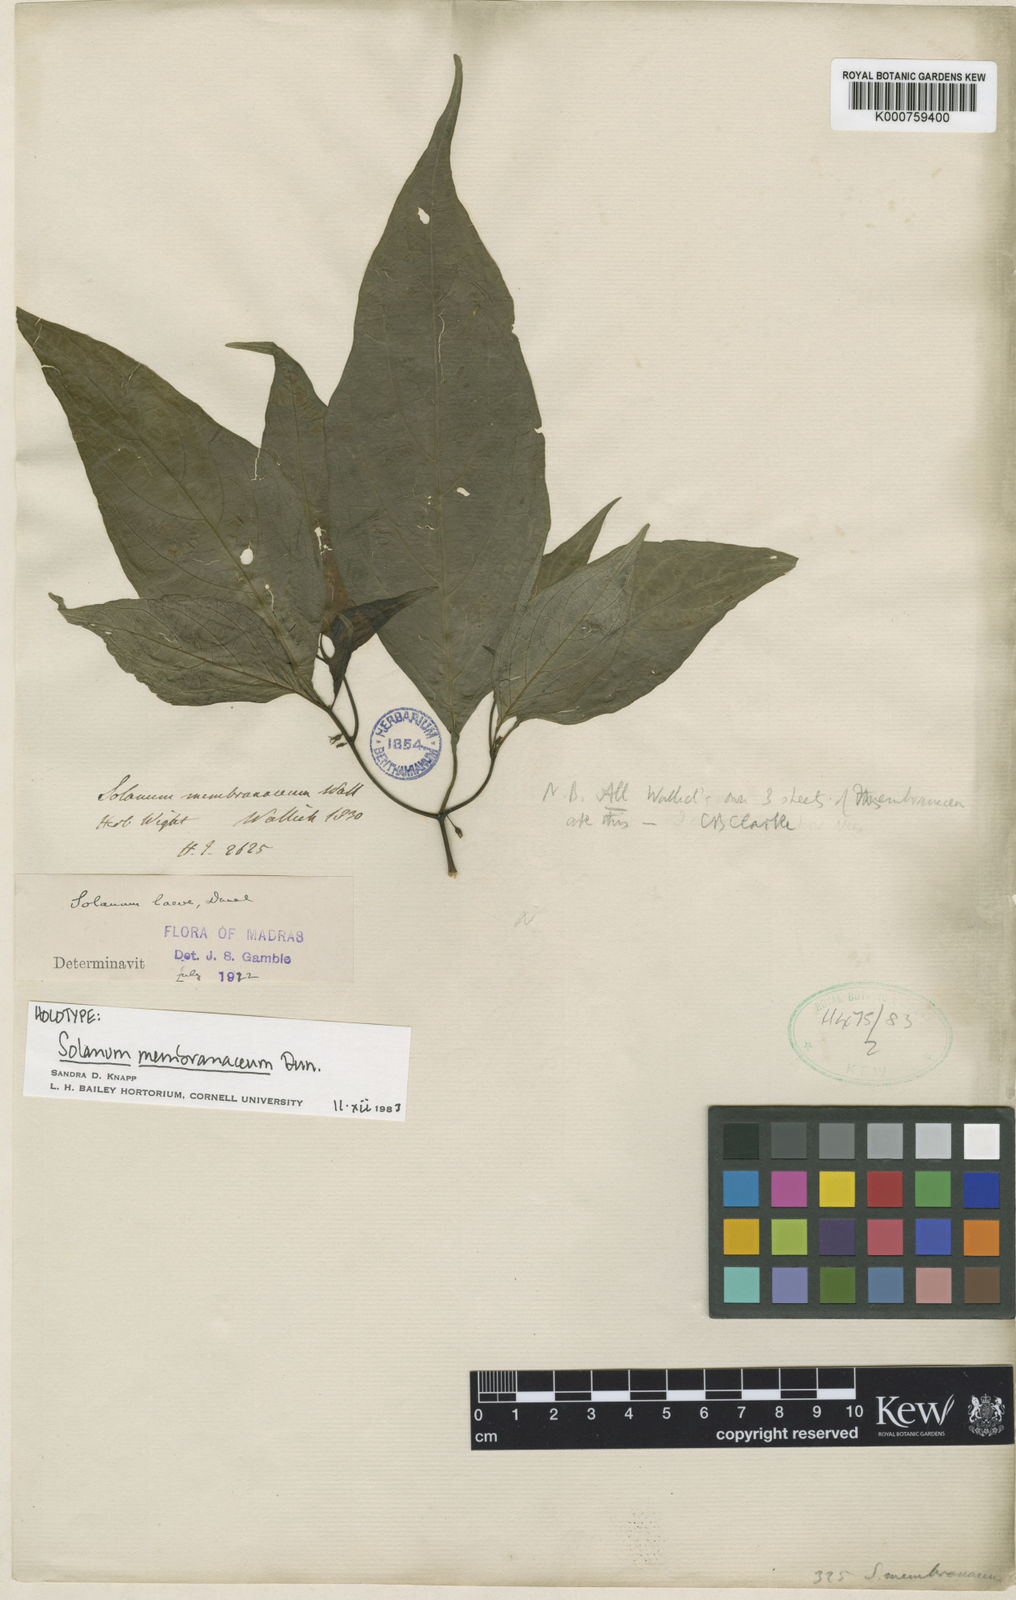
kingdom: Plantae
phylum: Tracheophyta
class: Magnoliopsida
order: Solanales
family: Solanaceae
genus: Lycianthes
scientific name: Lycianthes
